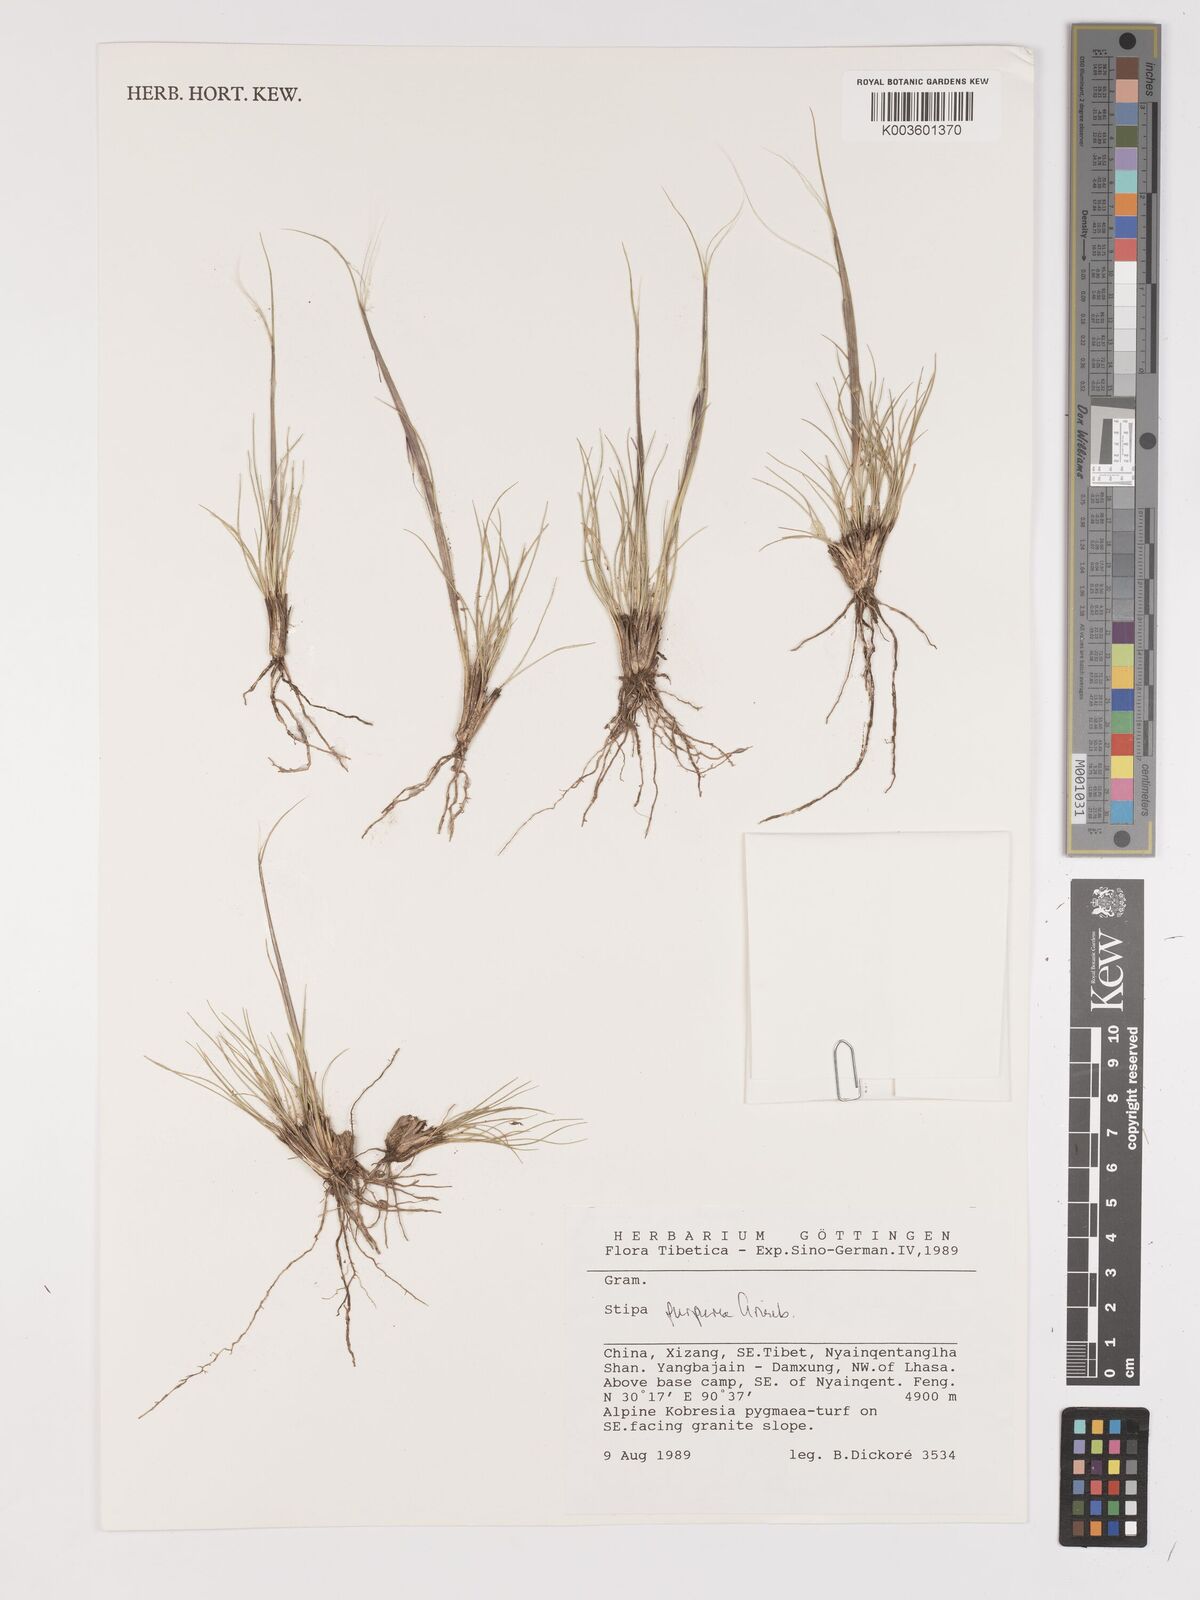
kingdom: Plantae
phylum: Tracheophyta
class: Liliopsida
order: Poales
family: Poaceae
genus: Stipa
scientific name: Stipa purpurea
